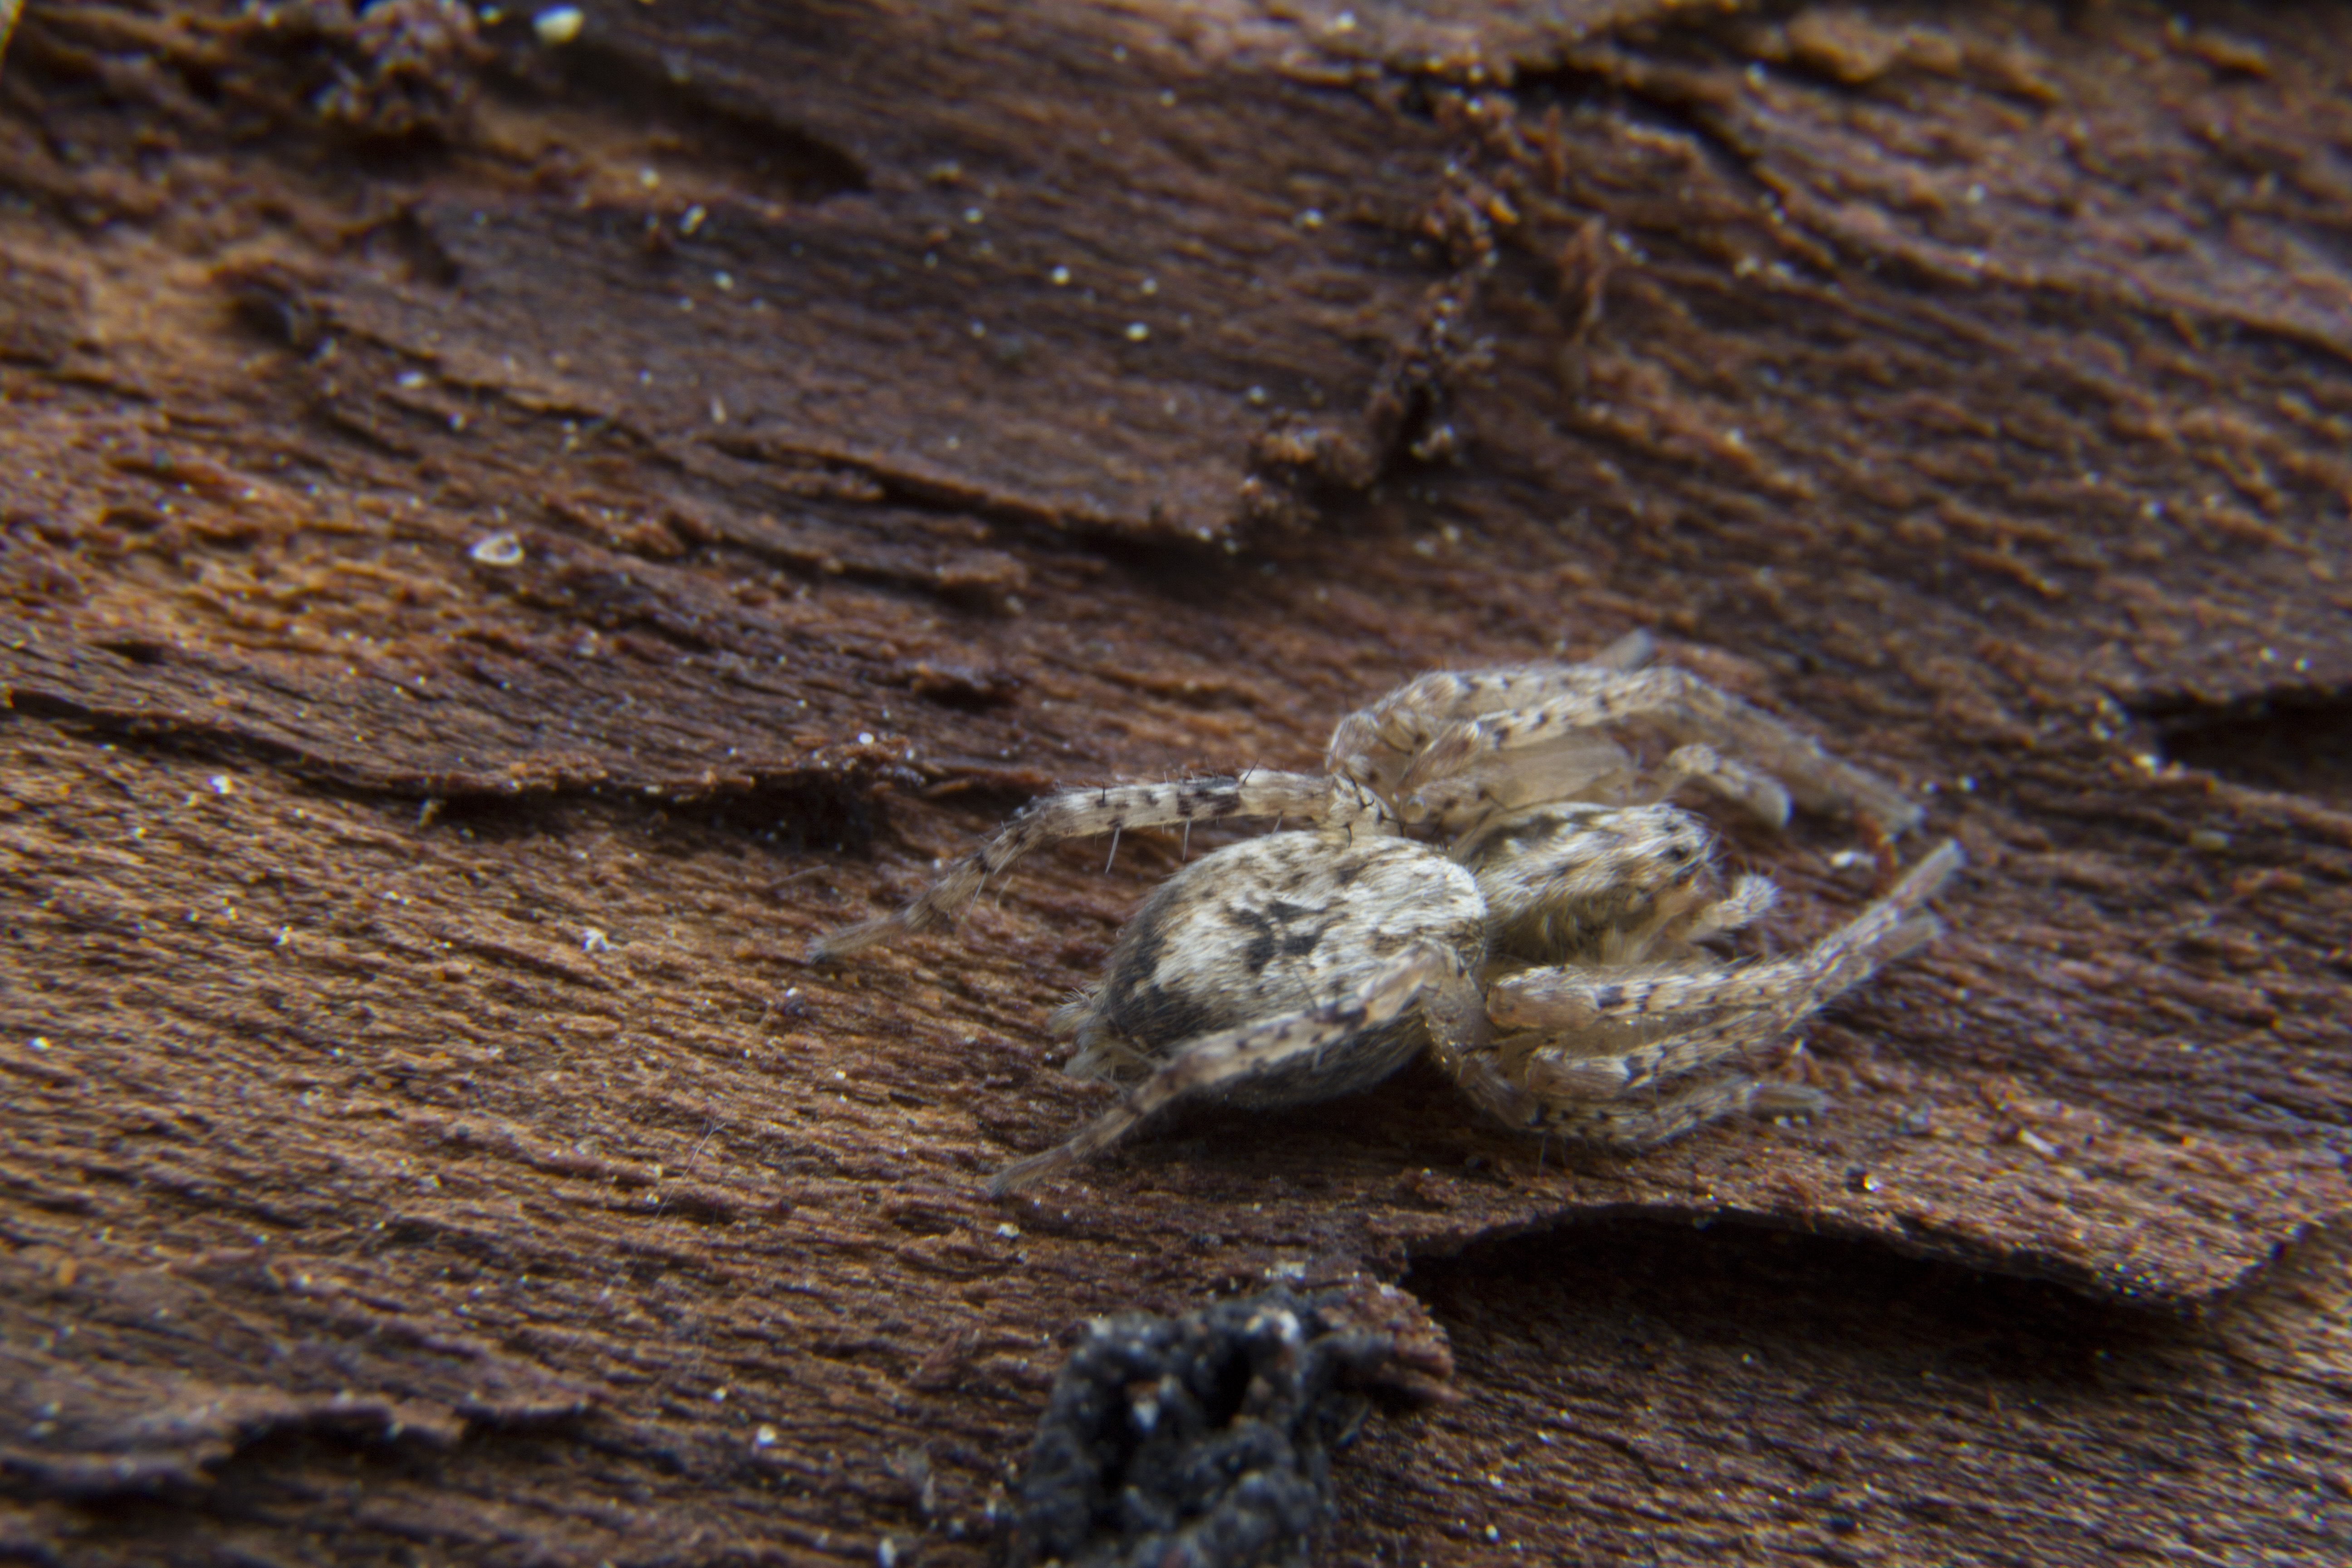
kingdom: Animalia
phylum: Arthropoda
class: Arachnida
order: Araneae
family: Anyphaenidae
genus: Anyphaena
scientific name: Anyphaena accentuata
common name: Buzzing spider
